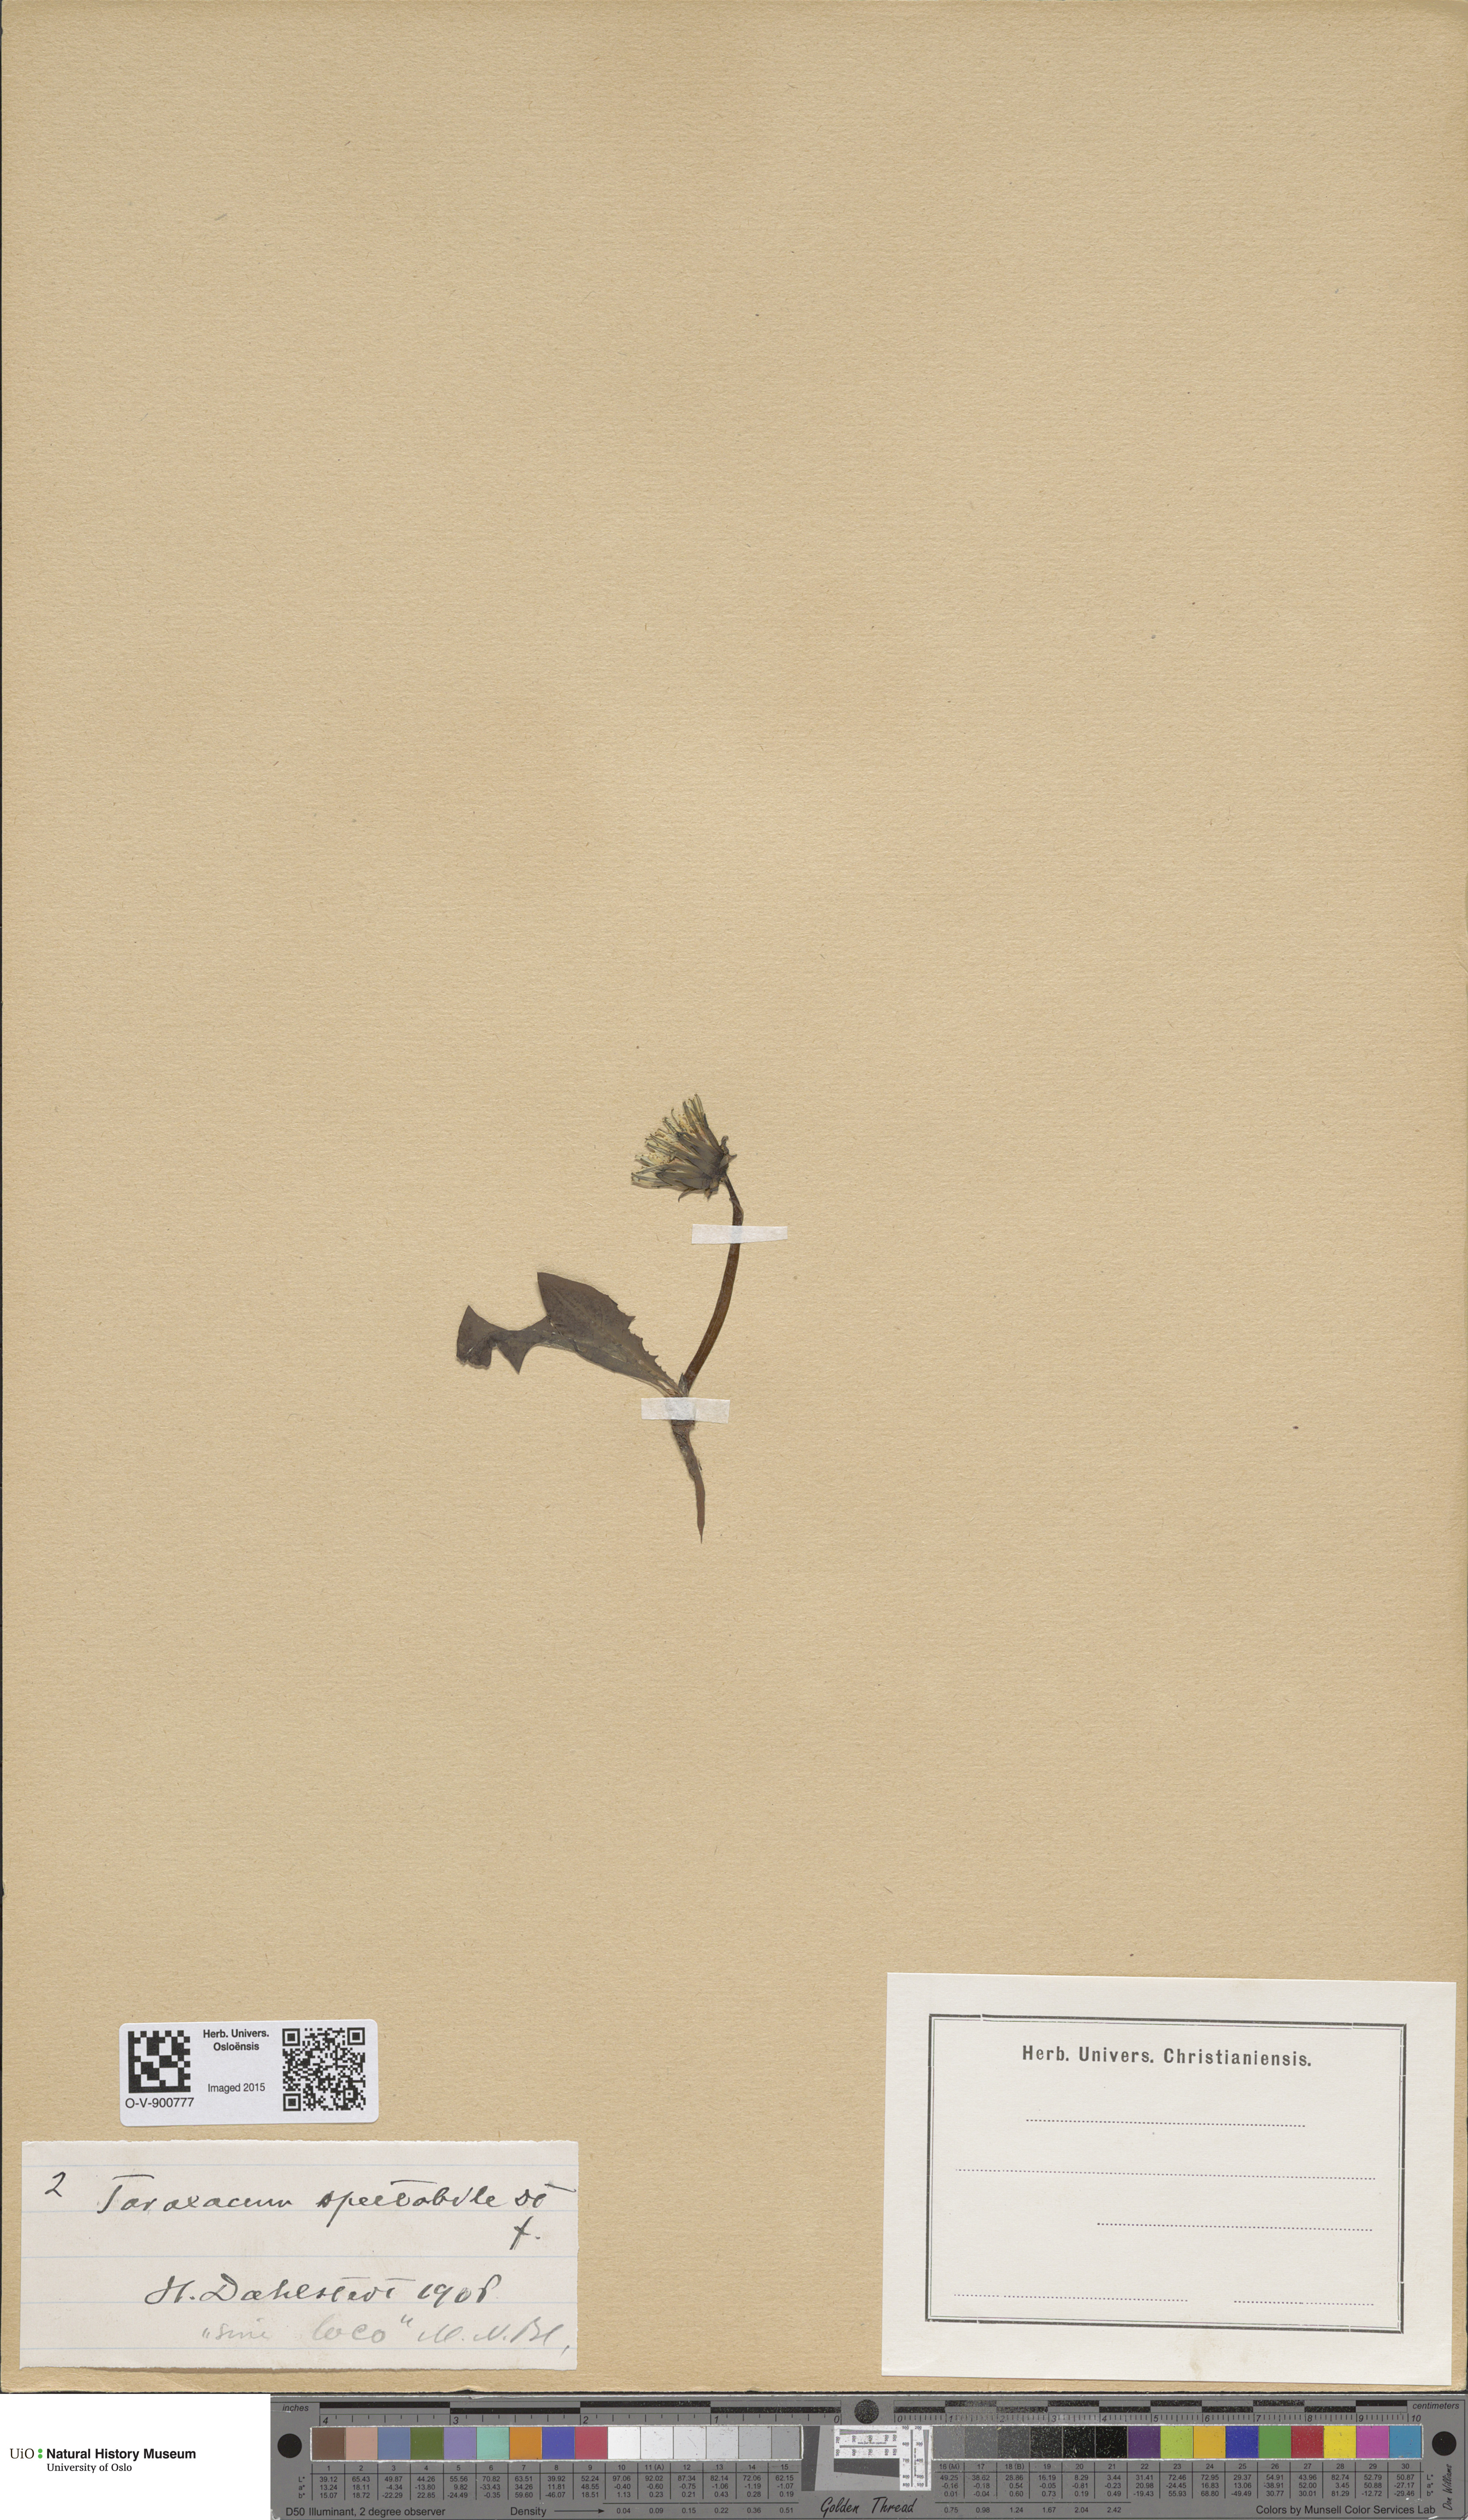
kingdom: Plantae
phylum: Tracheophyta
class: Magnoliopsida
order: Asterales
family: Asteraceae
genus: Taraxacum
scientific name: Taraxacum spectabile
